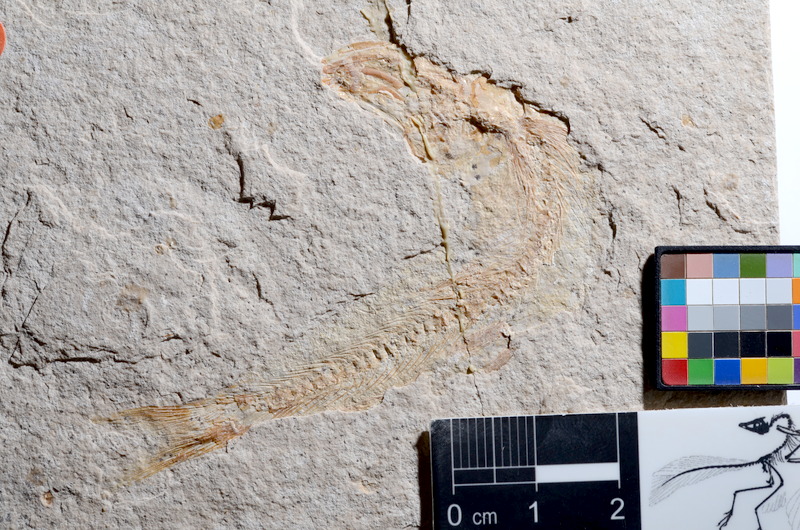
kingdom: Animalia
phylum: Chordata
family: Ascalaboidae
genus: Tharsis
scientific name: Tharsis dubius
